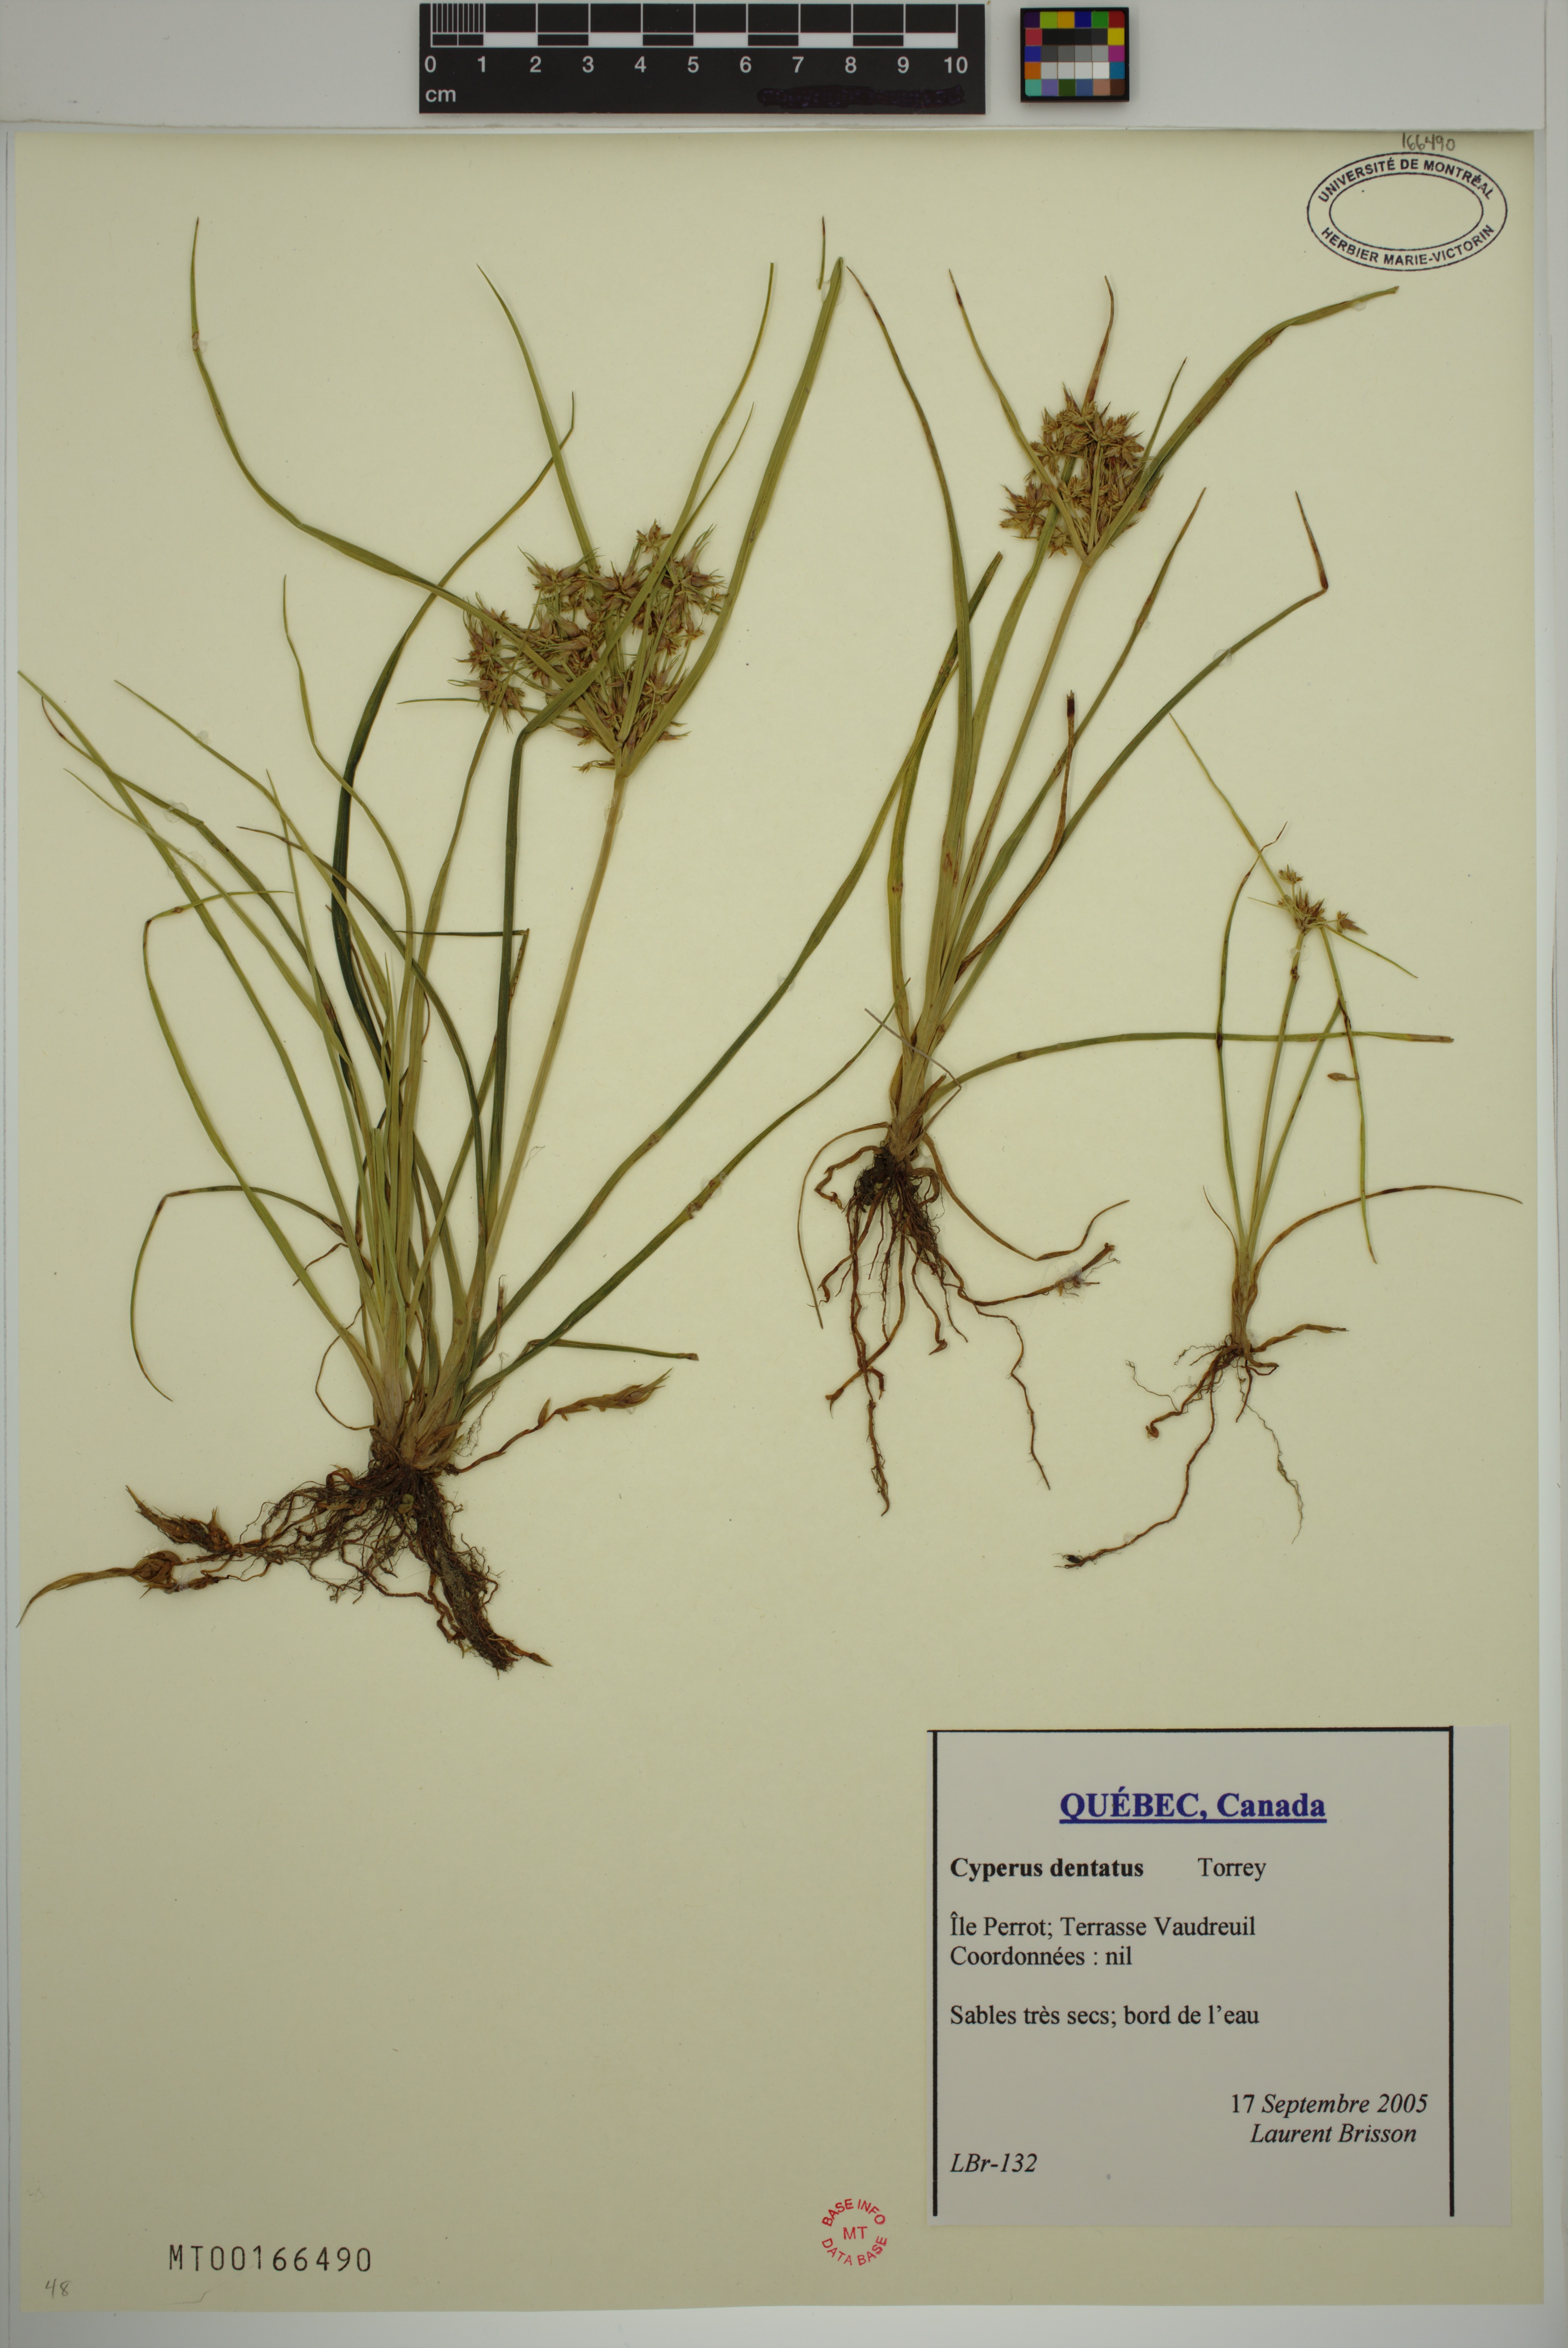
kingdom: Plantae
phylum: Tracheophyta
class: Liliopsida
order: Poales
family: Cyperaceae
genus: Cyperus
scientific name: Cyperus dentatus
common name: Dentate umbrella sedge
